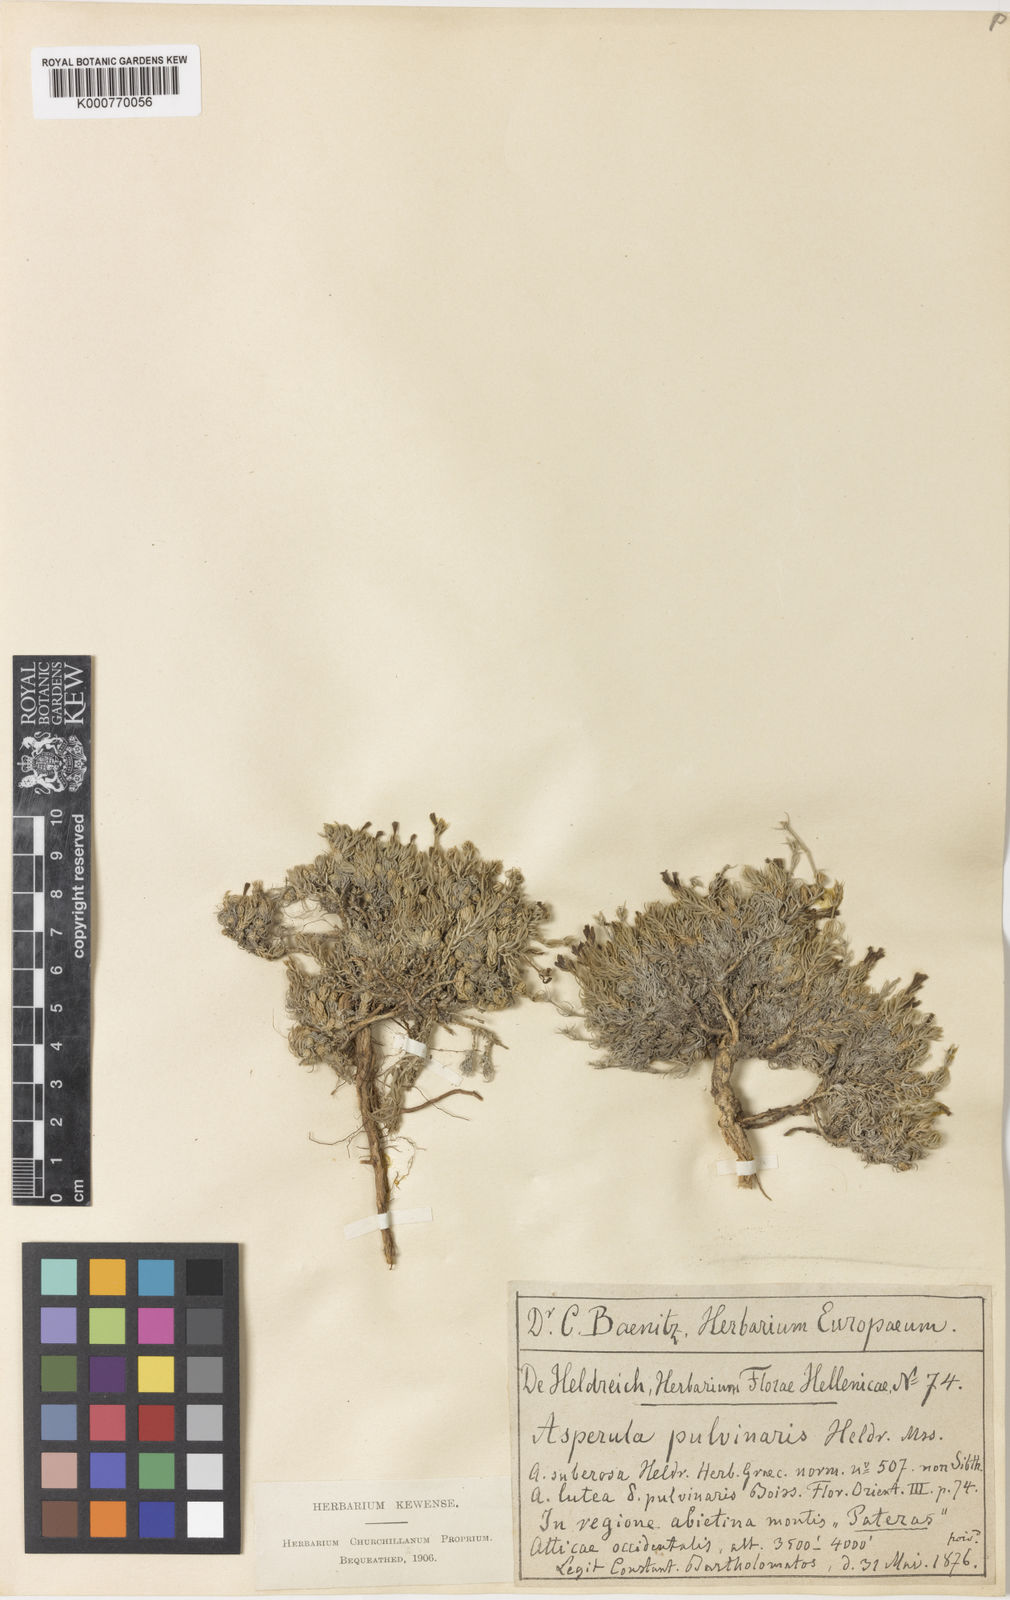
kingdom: Plantae
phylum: Tracheophyta
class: Magnoliopsida
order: Gentianales
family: Rubiaceae
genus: Cynanchica
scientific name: Cynanchica pulvinaris
